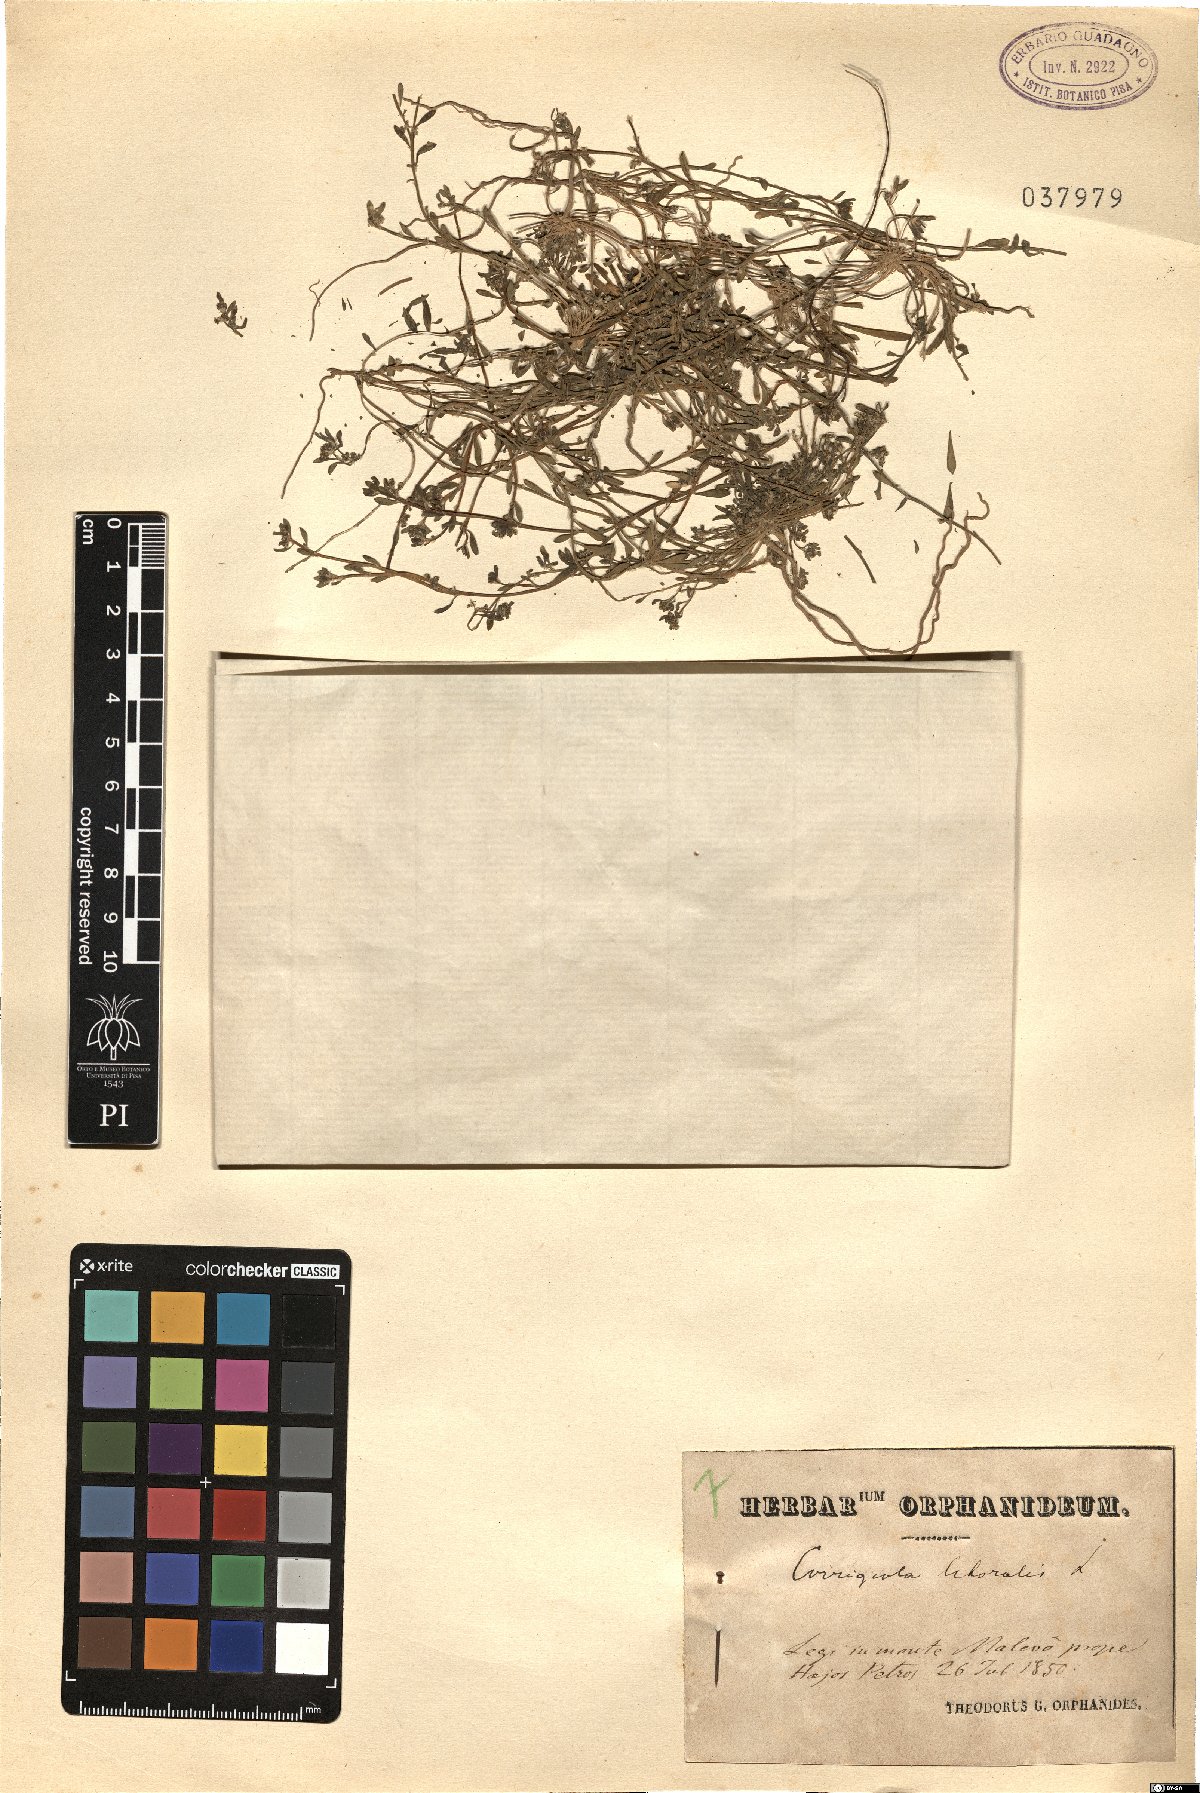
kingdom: Plantae
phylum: Tracheophyta
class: Magnoliopsida
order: Caryophyllales
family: Caryophyllaceae
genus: Corrigiola
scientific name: Corrigiola litoralis
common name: Strapwort
